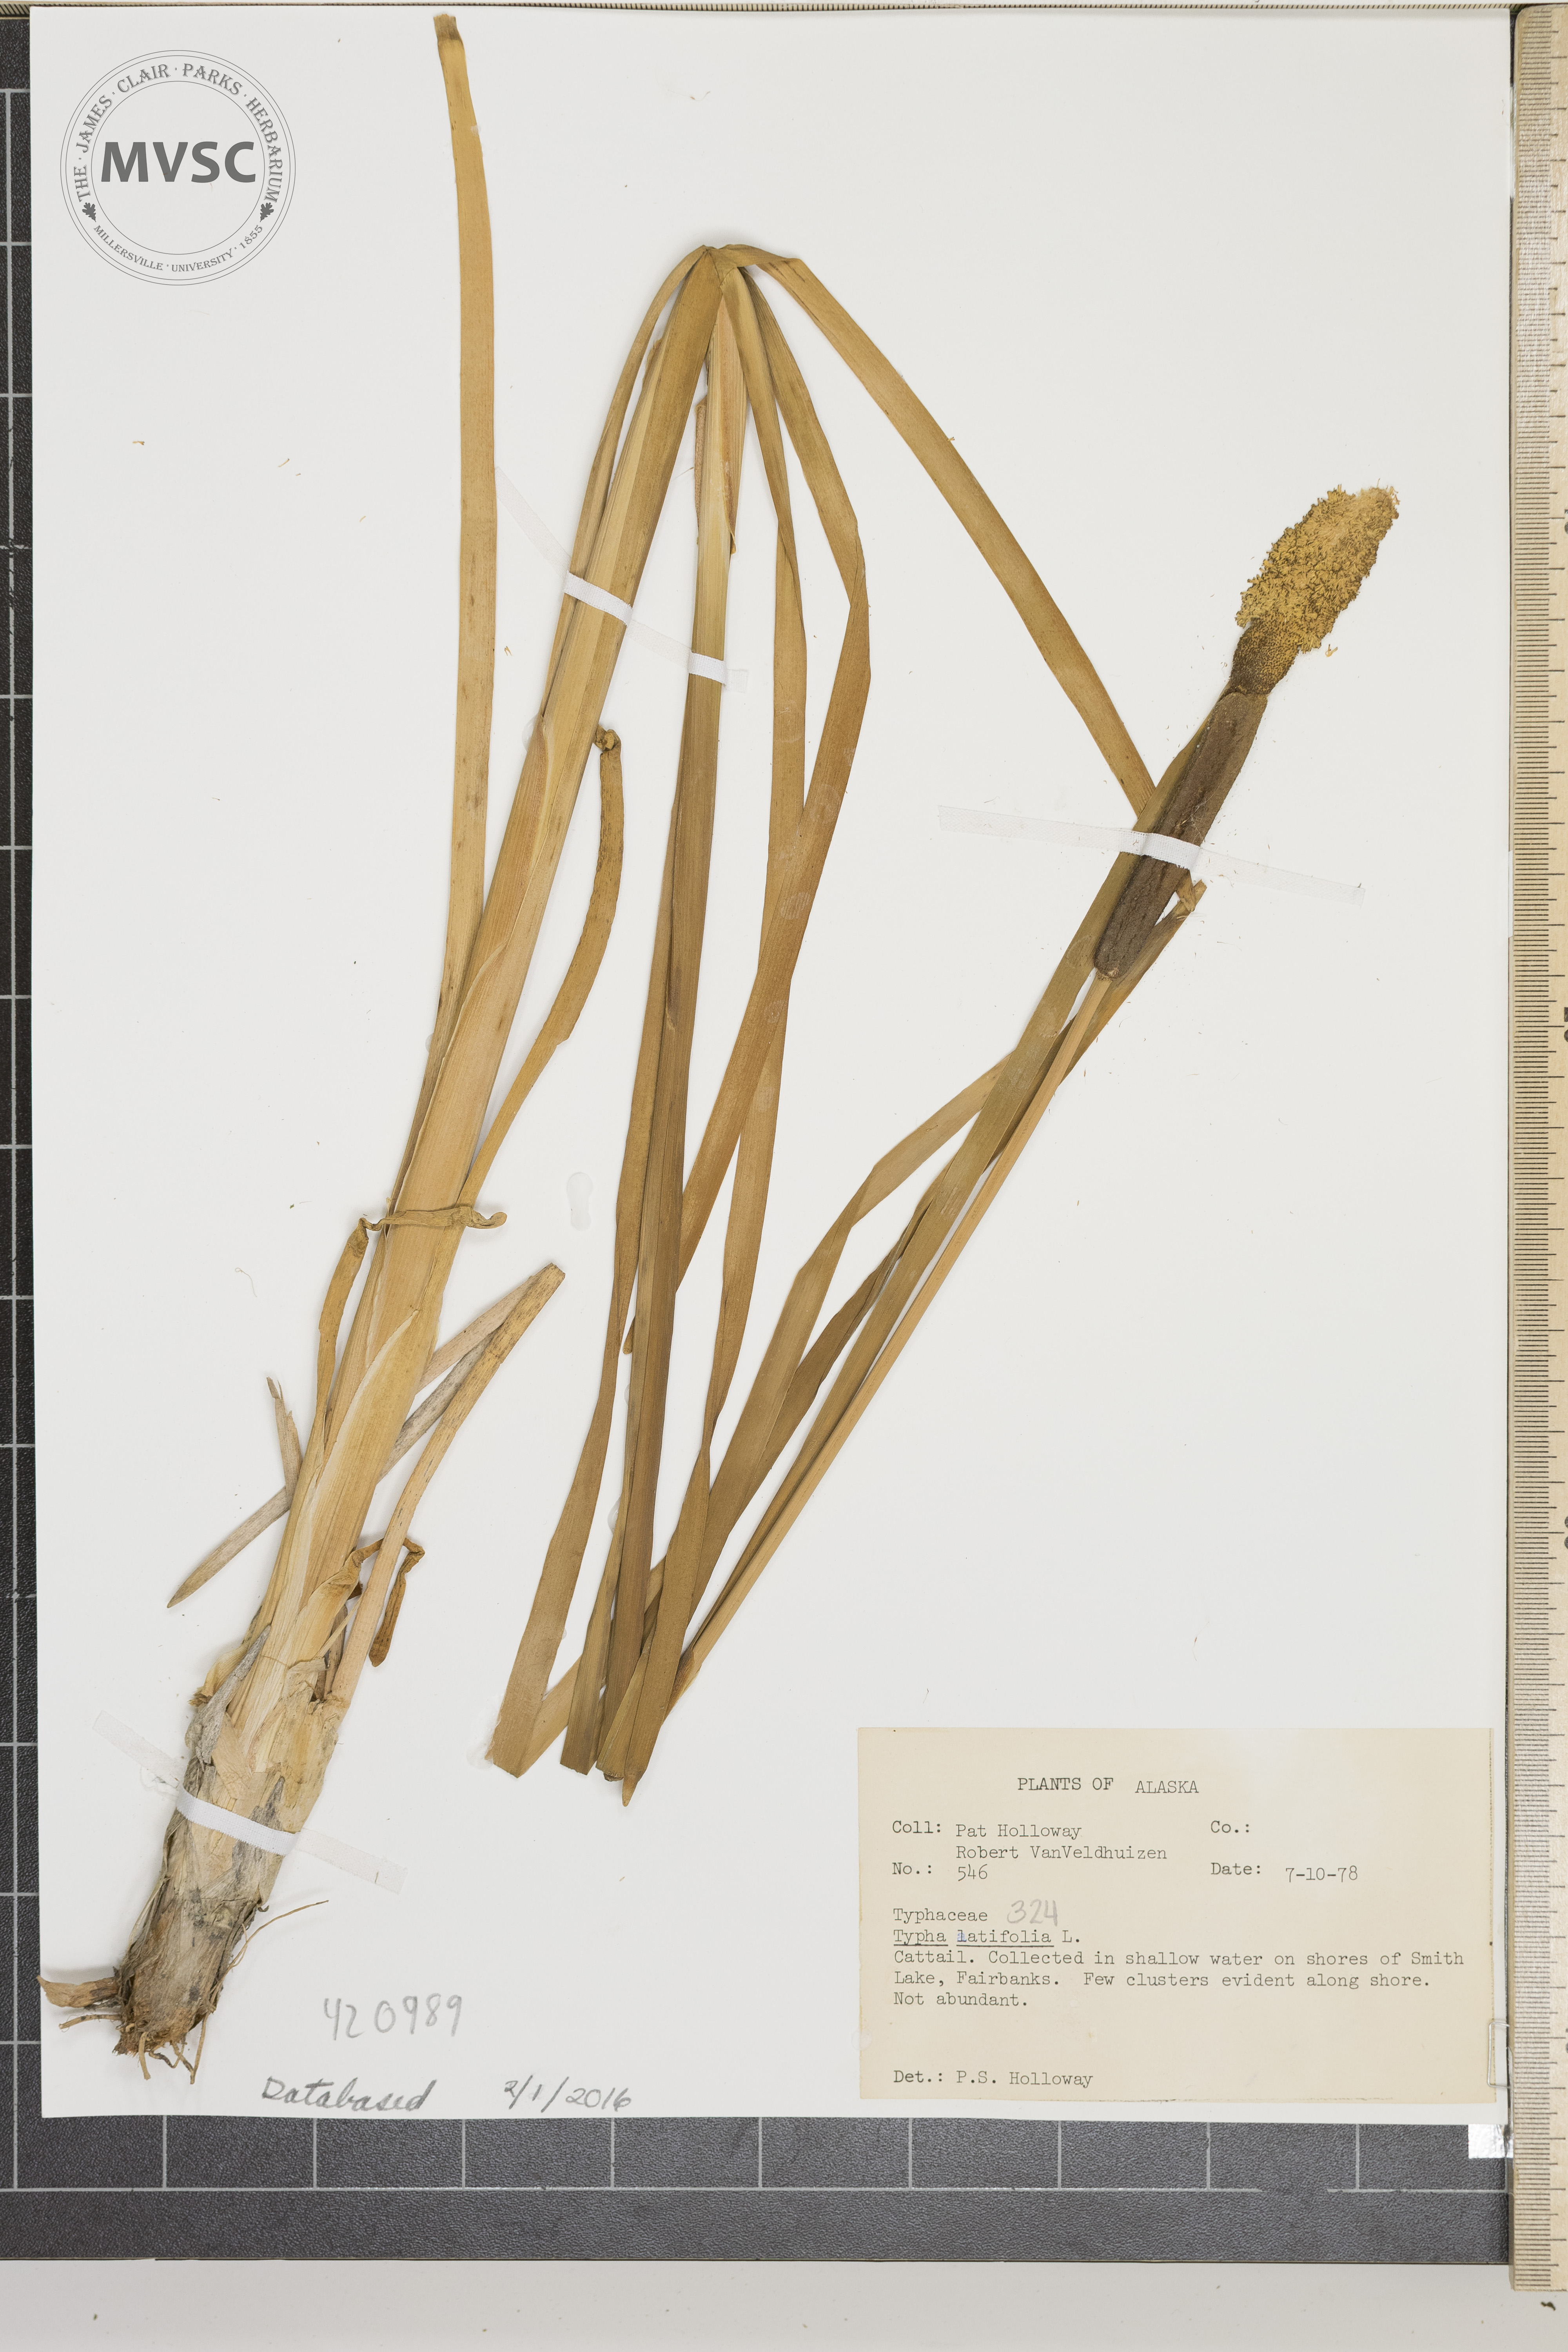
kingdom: Plantae
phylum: Tracheophyta
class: Liliopsida
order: Poales
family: Typhaceae
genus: Typha
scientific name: Typha latifolia
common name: Cattail
